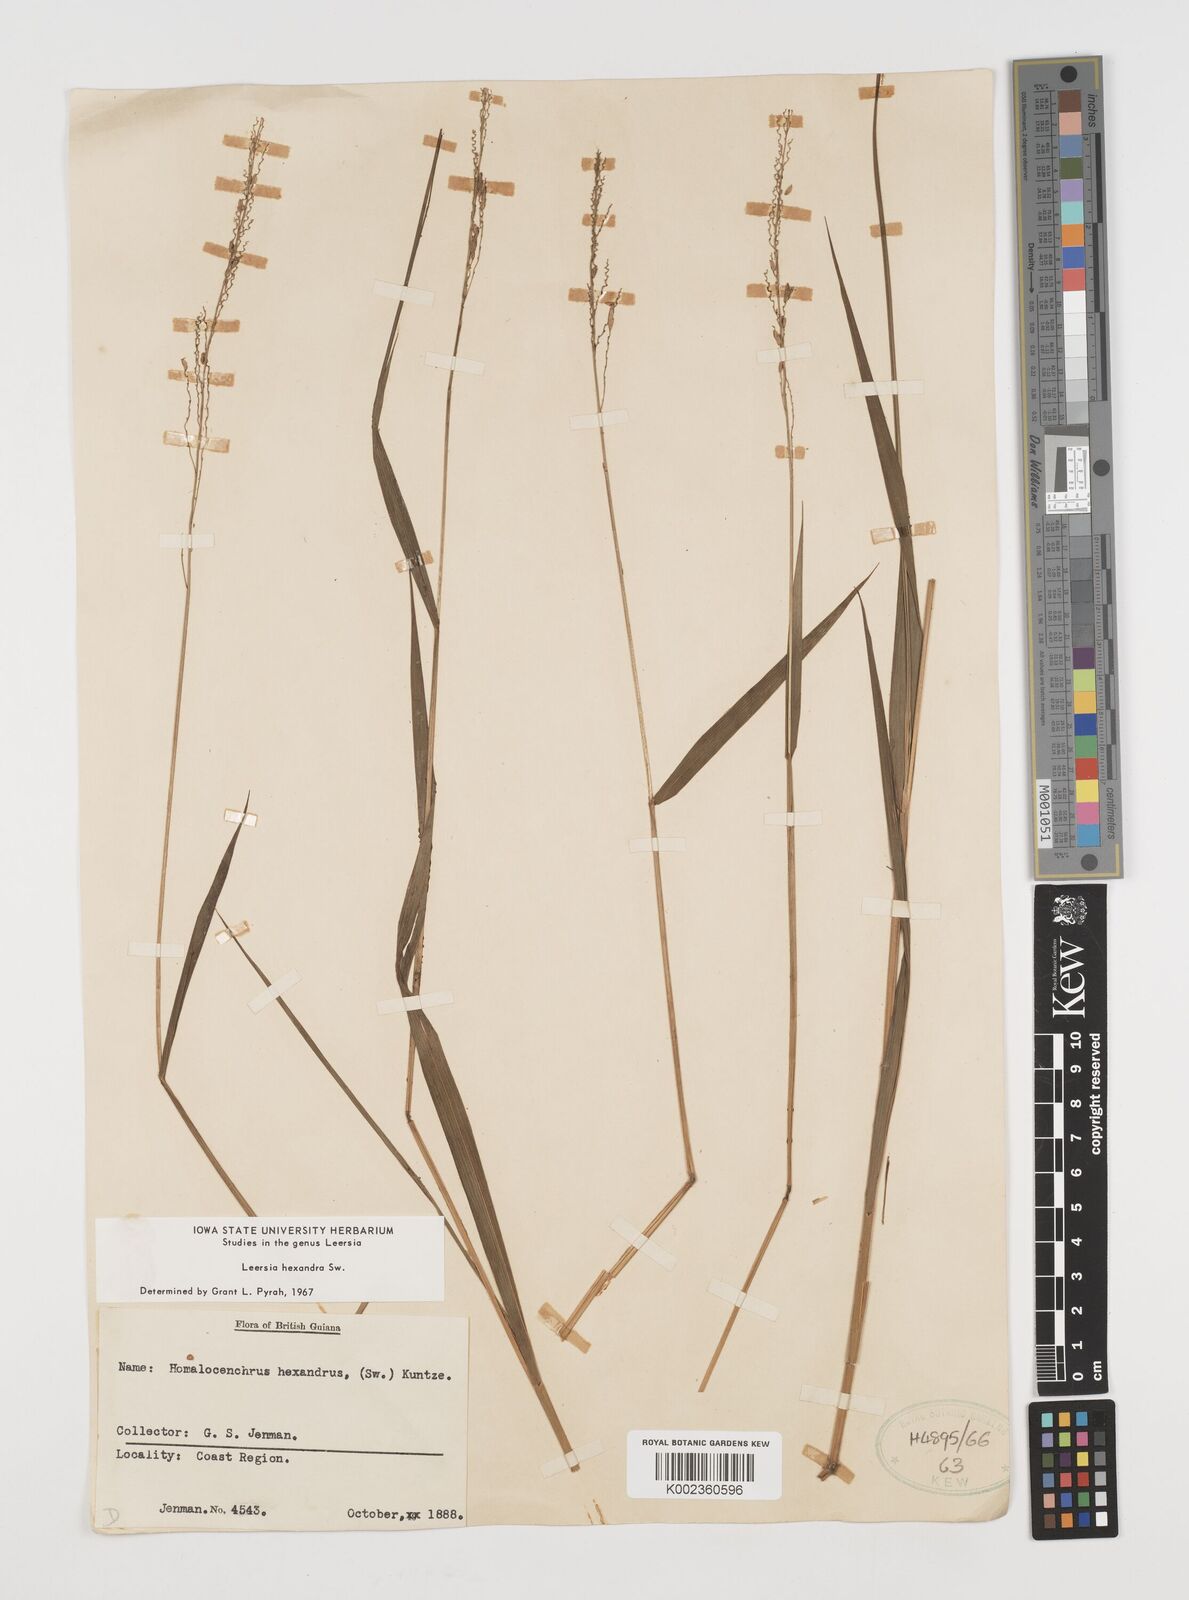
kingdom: Plantae
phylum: Tracheophyta
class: Liliopsida
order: Poales
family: Poaceae
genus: Leersia
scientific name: Leersia hexandra
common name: Southern cut grass
